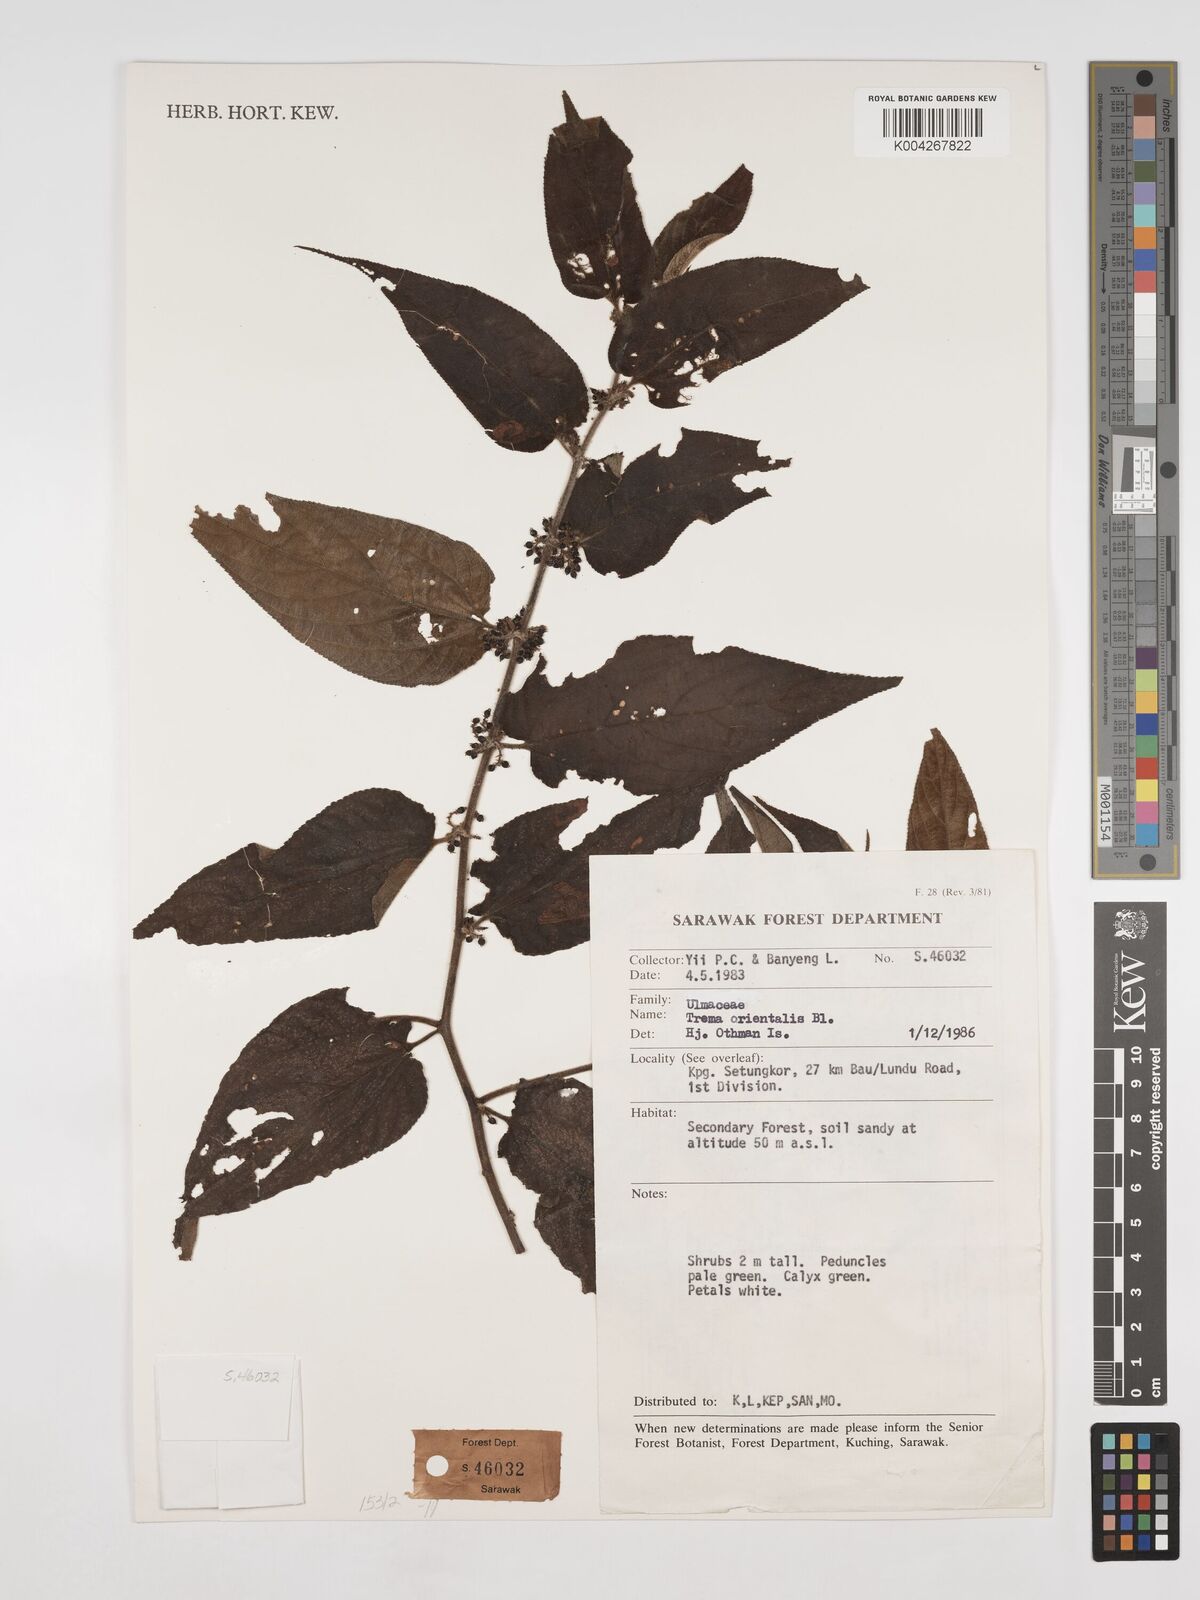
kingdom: Plantae
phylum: Tracheophyta
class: Magnoliopsida
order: Rosales
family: Cannabaceae
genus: Trema
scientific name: Trema orientale
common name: Indian charcoal tree
